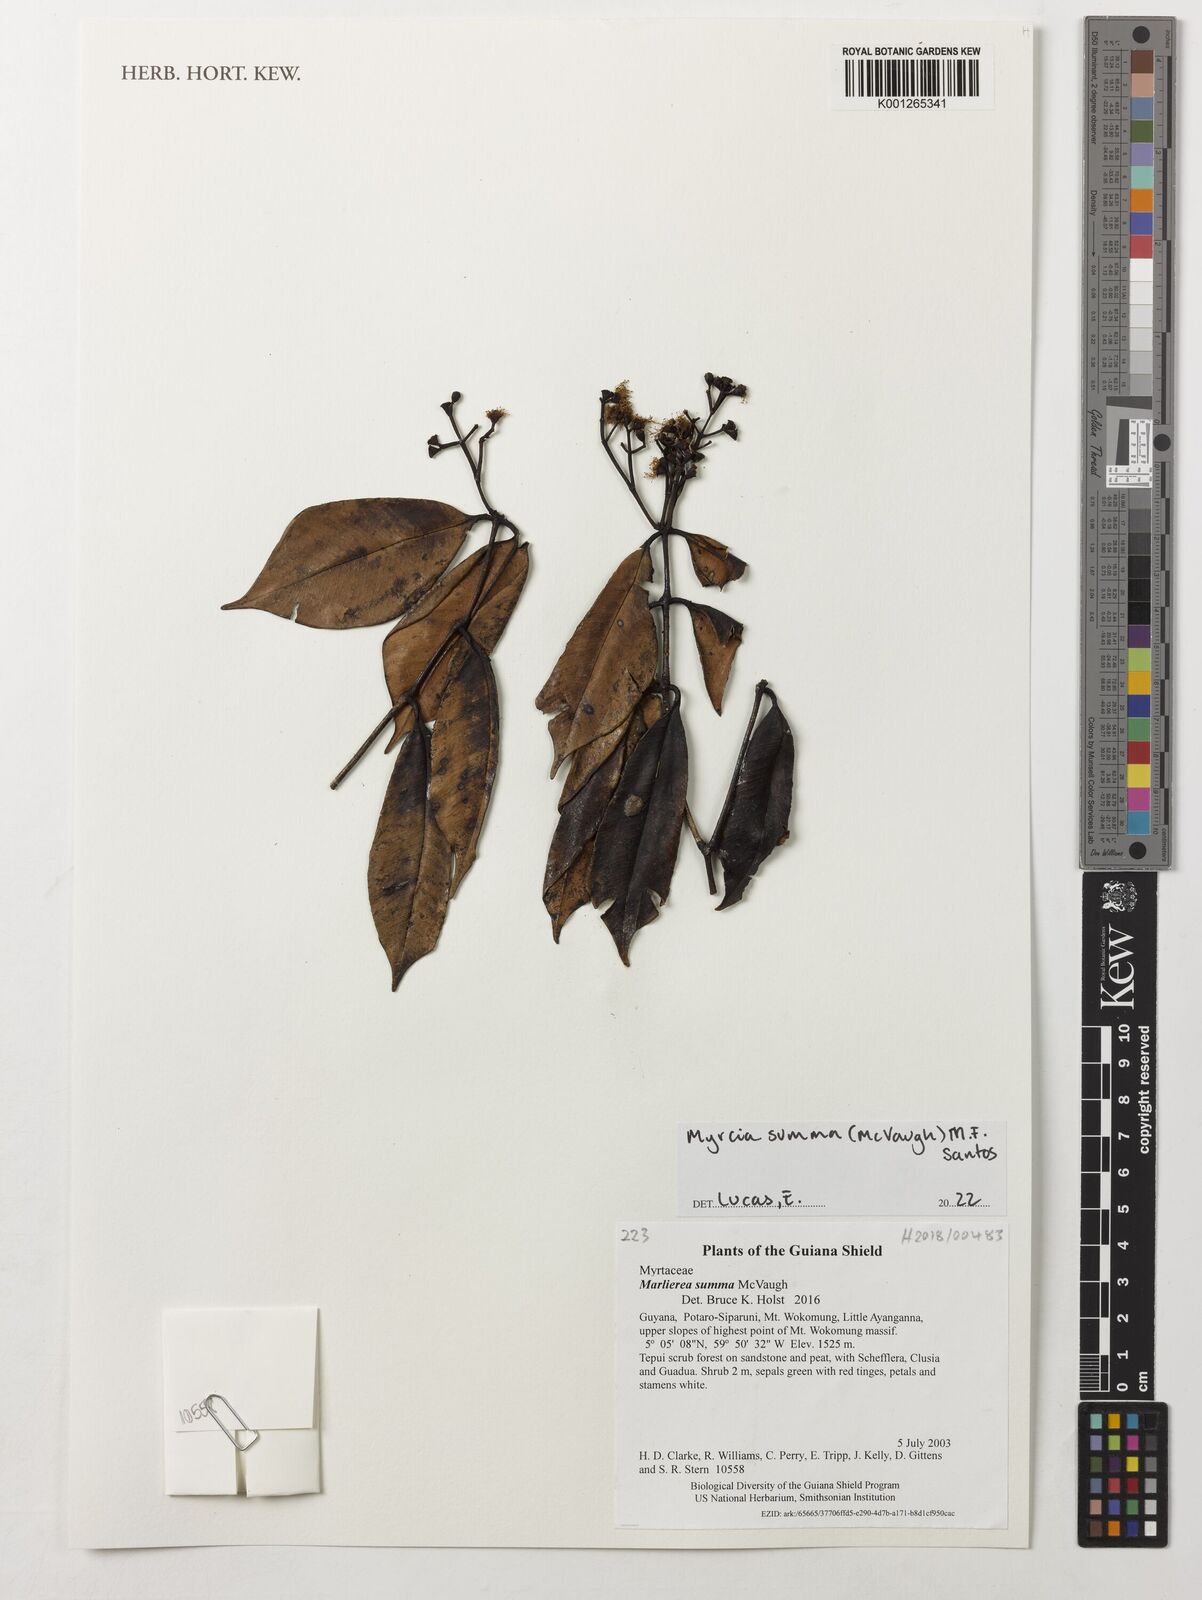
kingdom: Plantae
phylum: Tracheophyta
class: Magnoliopsida
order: Myrtales
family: Myrtaceae
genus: Myrcia
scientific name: Myrcia summa
